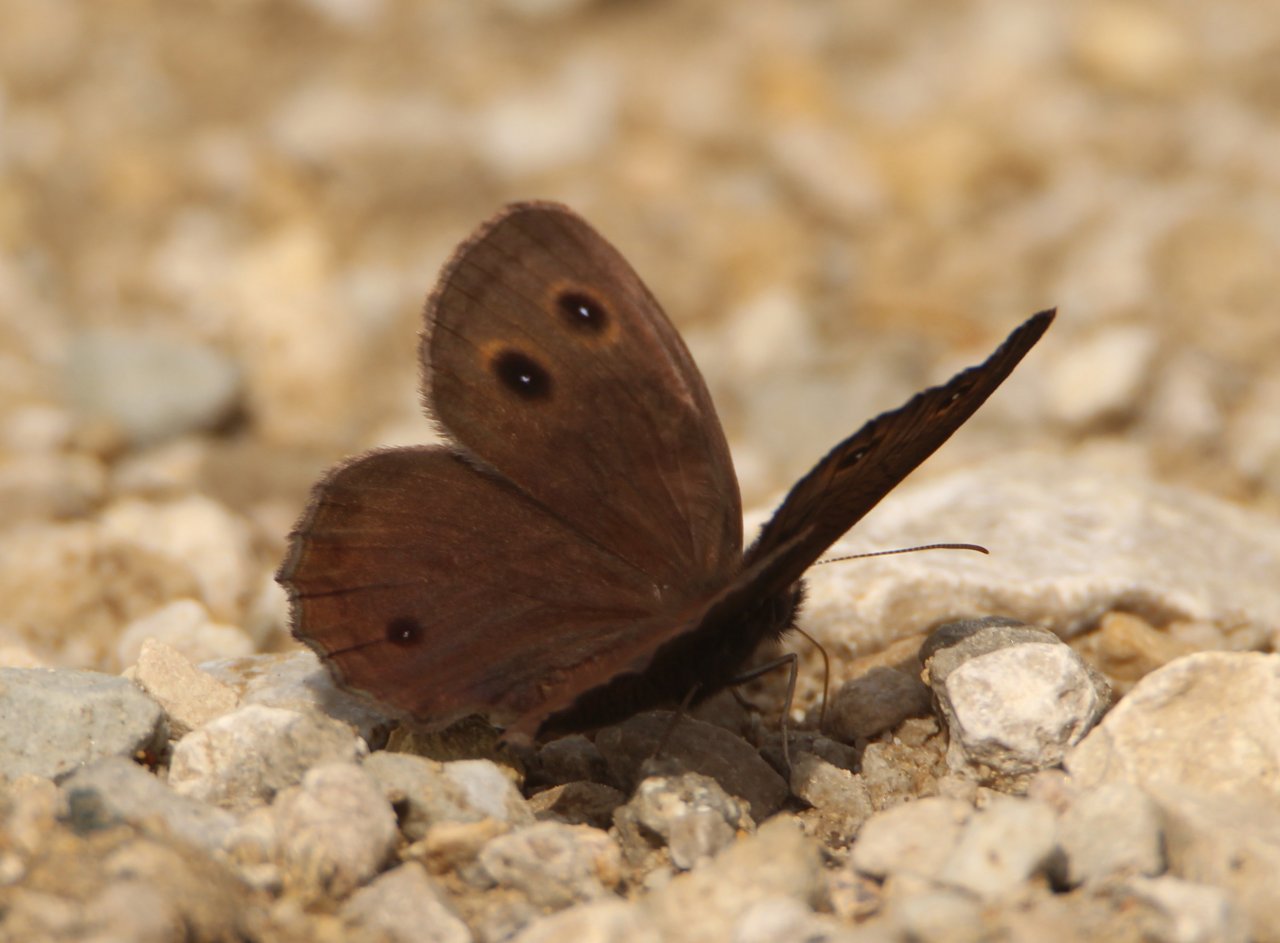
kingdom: Animalia
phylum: Arthropoda
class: Insecta
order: Lepidoptera
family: Nymphalidae
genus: Cercyonis
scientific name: Cercyonis pegala
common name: Common Wood-Nymph
